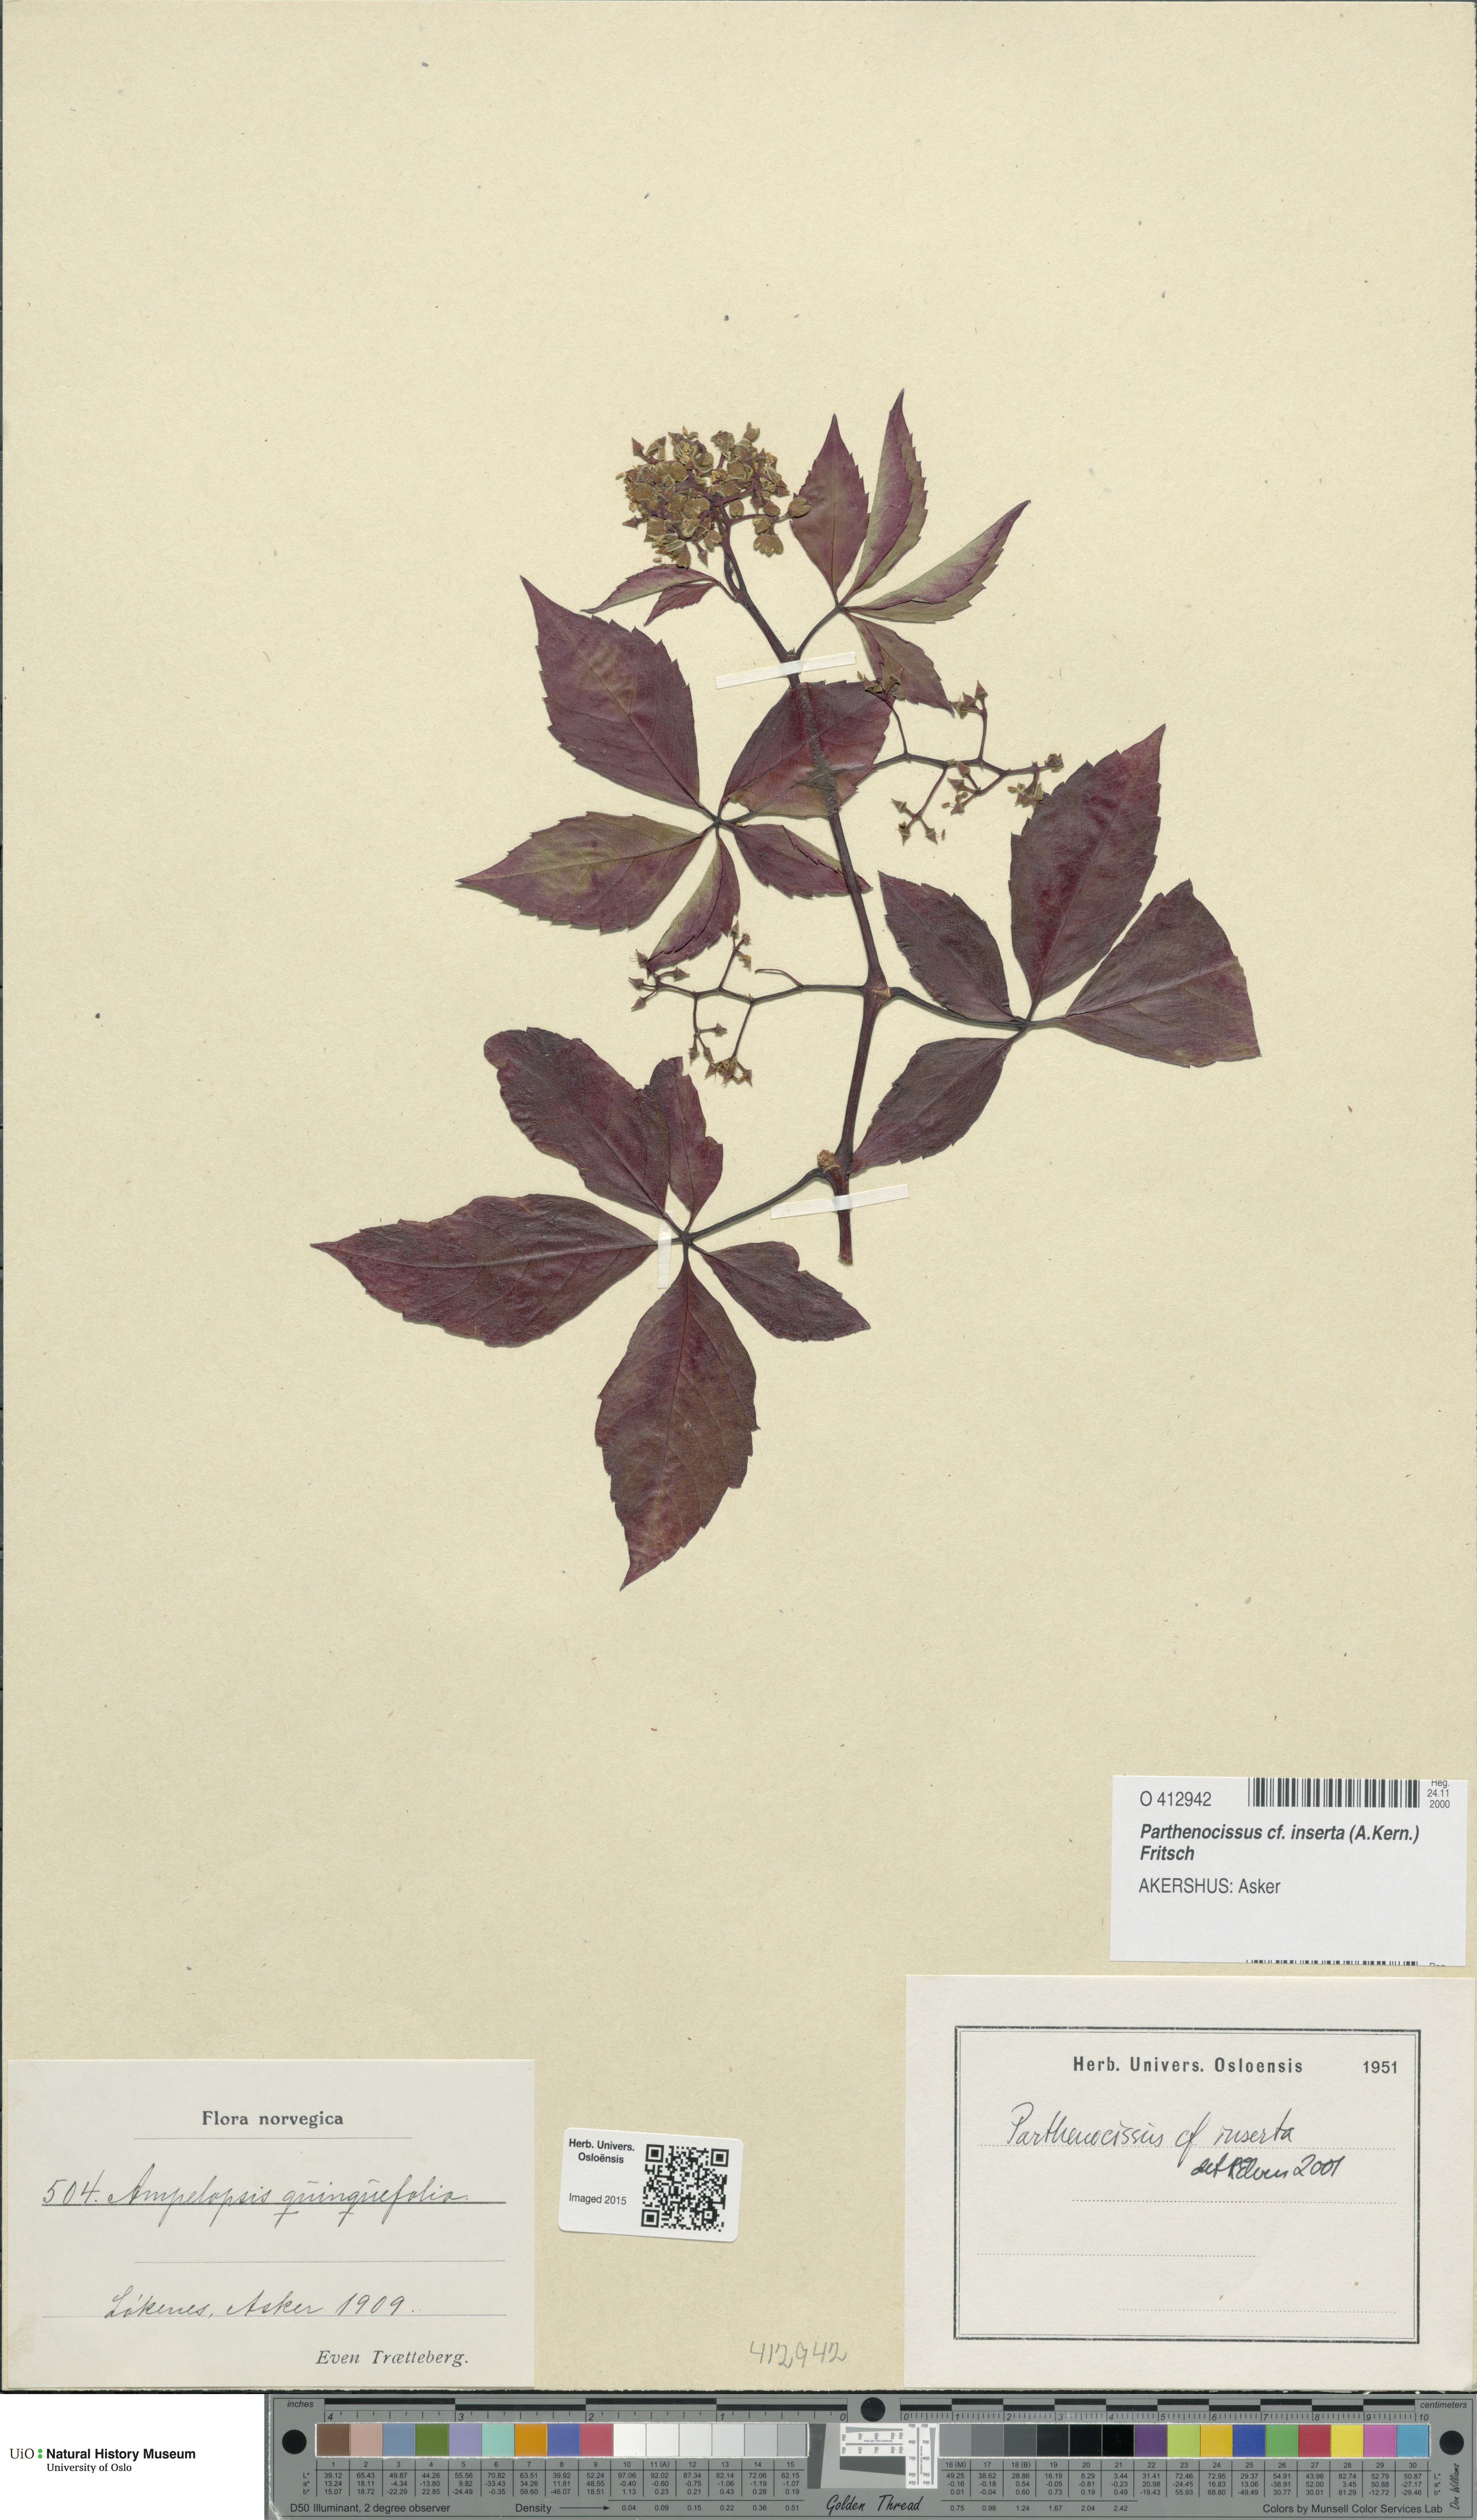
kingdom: Plantae
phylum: Tracheophyta
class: Magnoliopsida
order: Vitales
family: Vitaceae
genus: Parthenocissus
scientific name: Parthenocissus inserta
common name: False virginia-creeper
